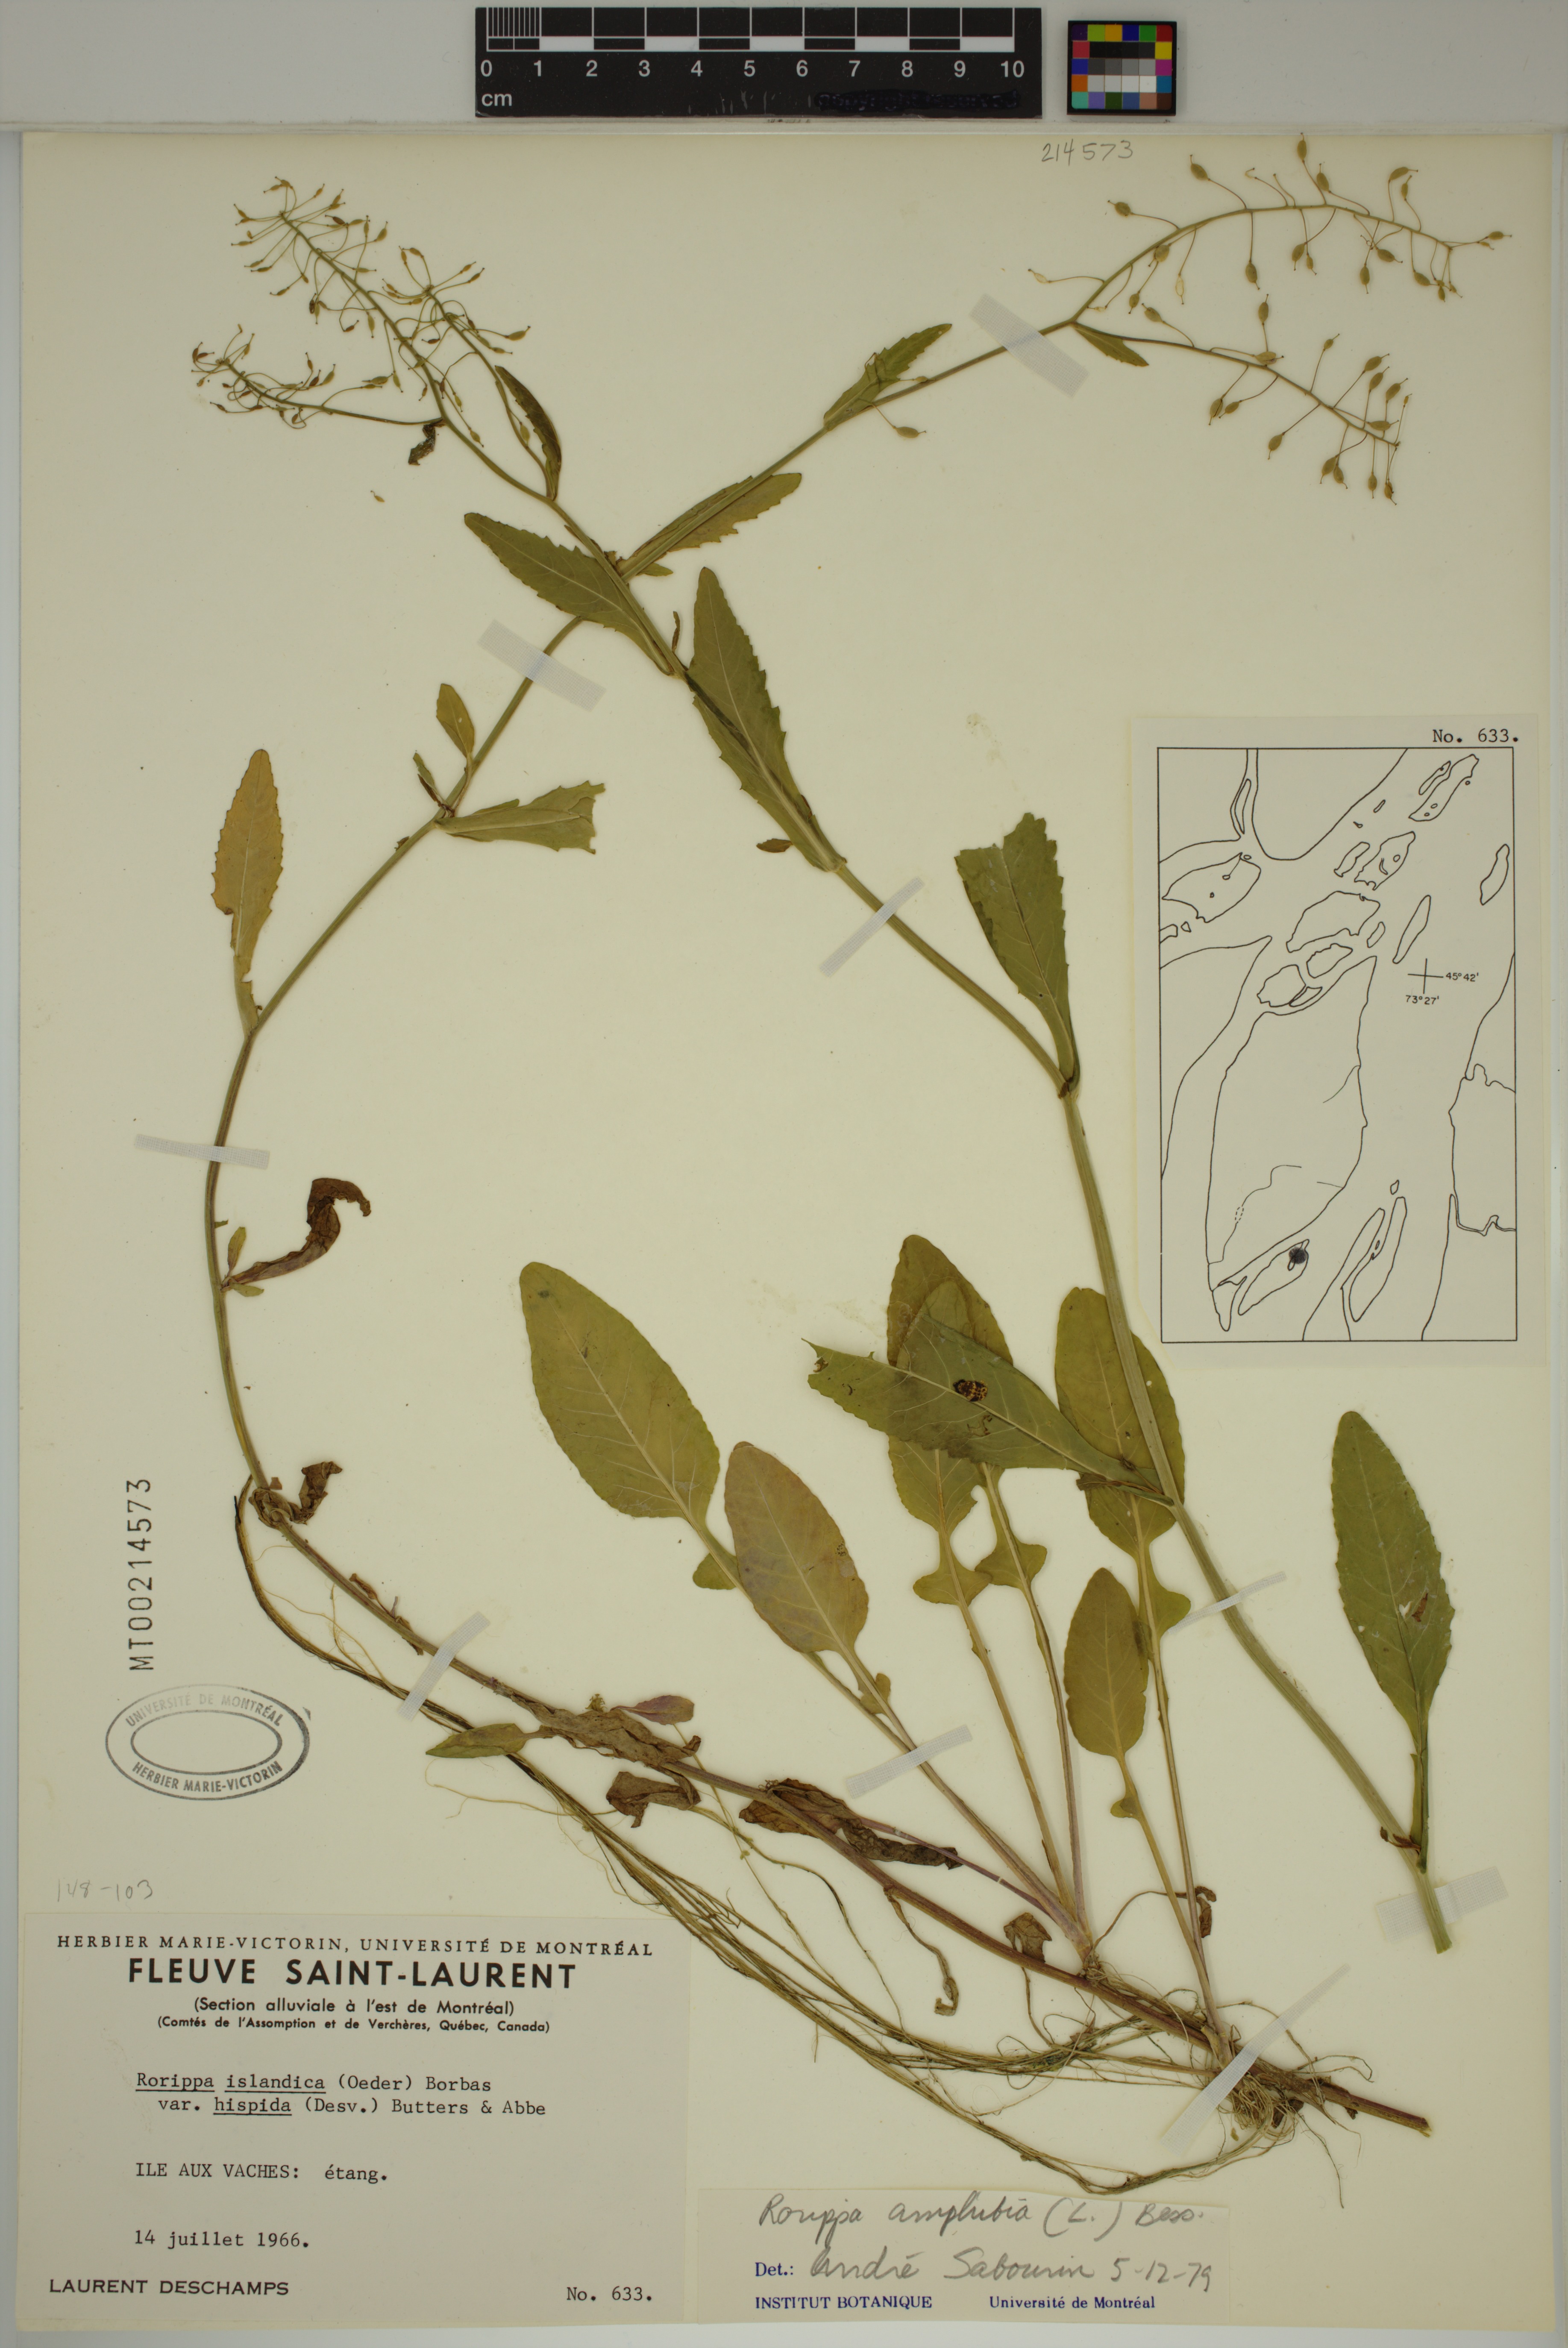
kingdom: Plantae
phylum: Tracheophyta
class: Magnoliopsida
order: Brassicales
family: Brassicaceae
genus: Rorippa
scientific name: Rorippa amphibia
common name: Great yellow-cress
